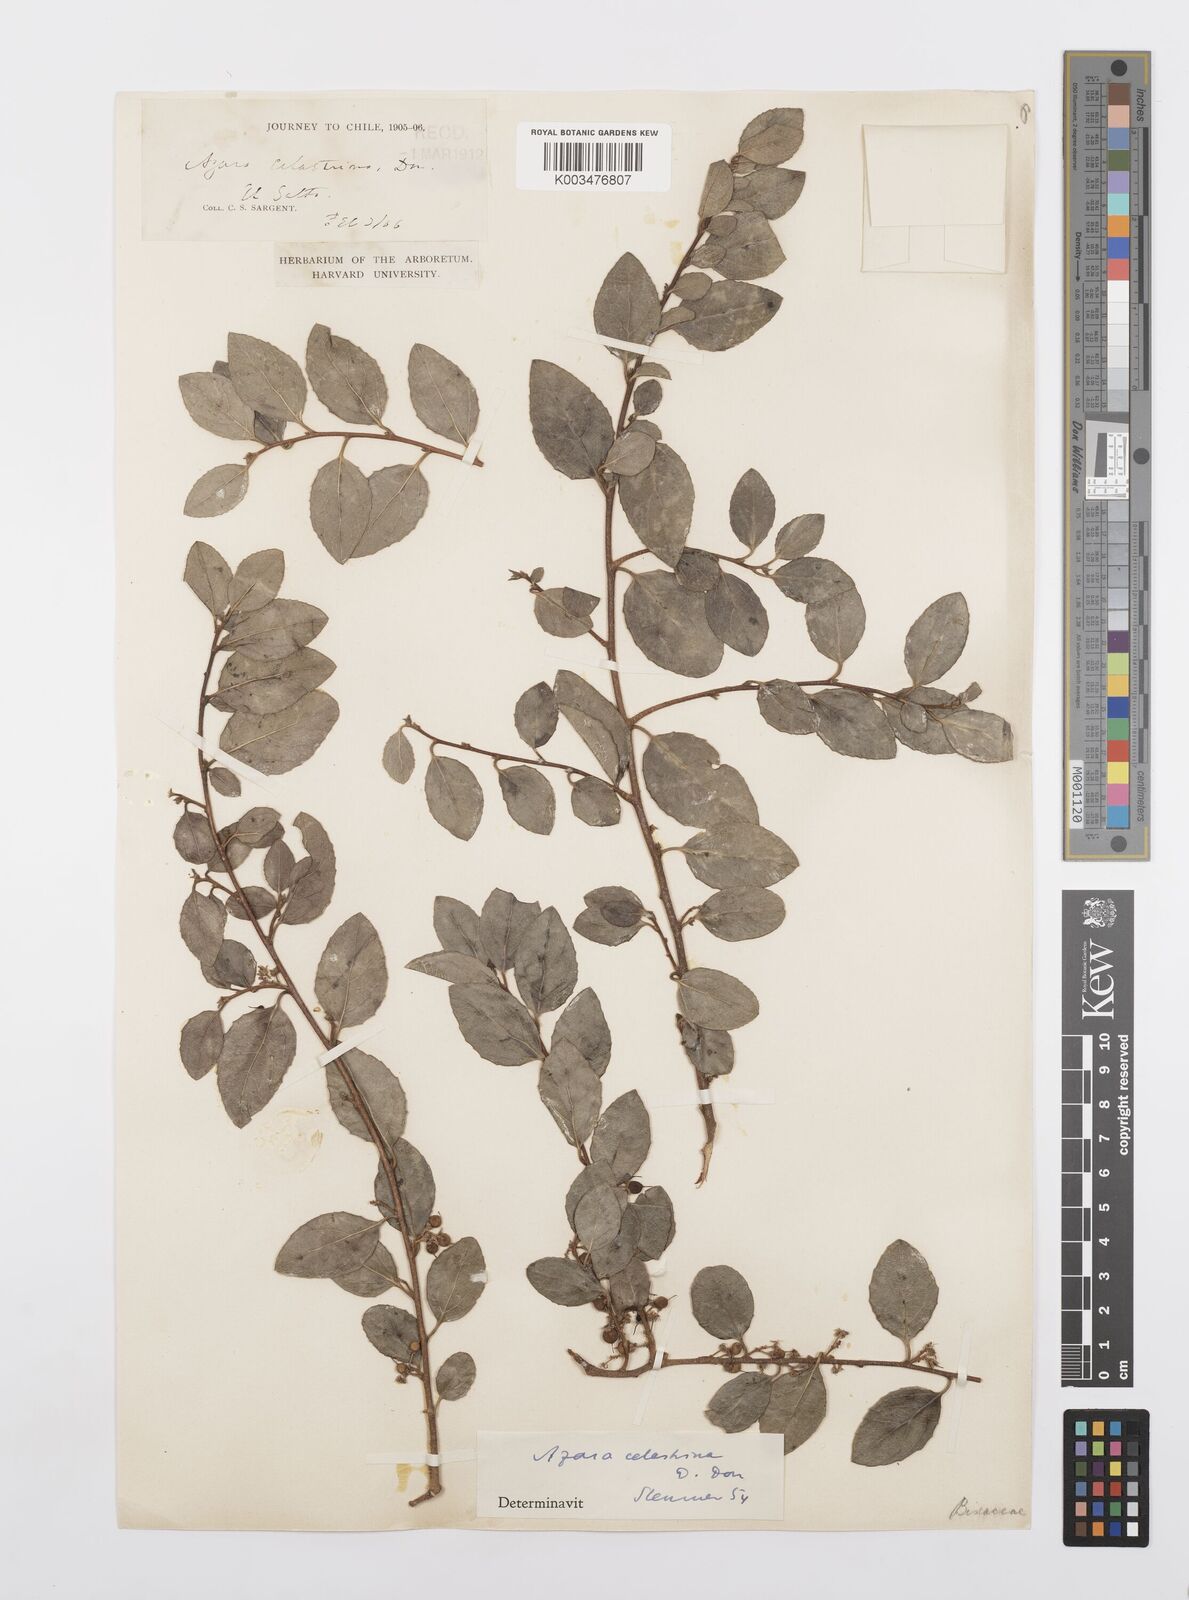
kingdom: Plantae
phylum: Tracheophyta
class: Magnoliopsida
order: Malpighiales
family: Salicaceae
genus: Azara
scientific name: Azara celastrina
